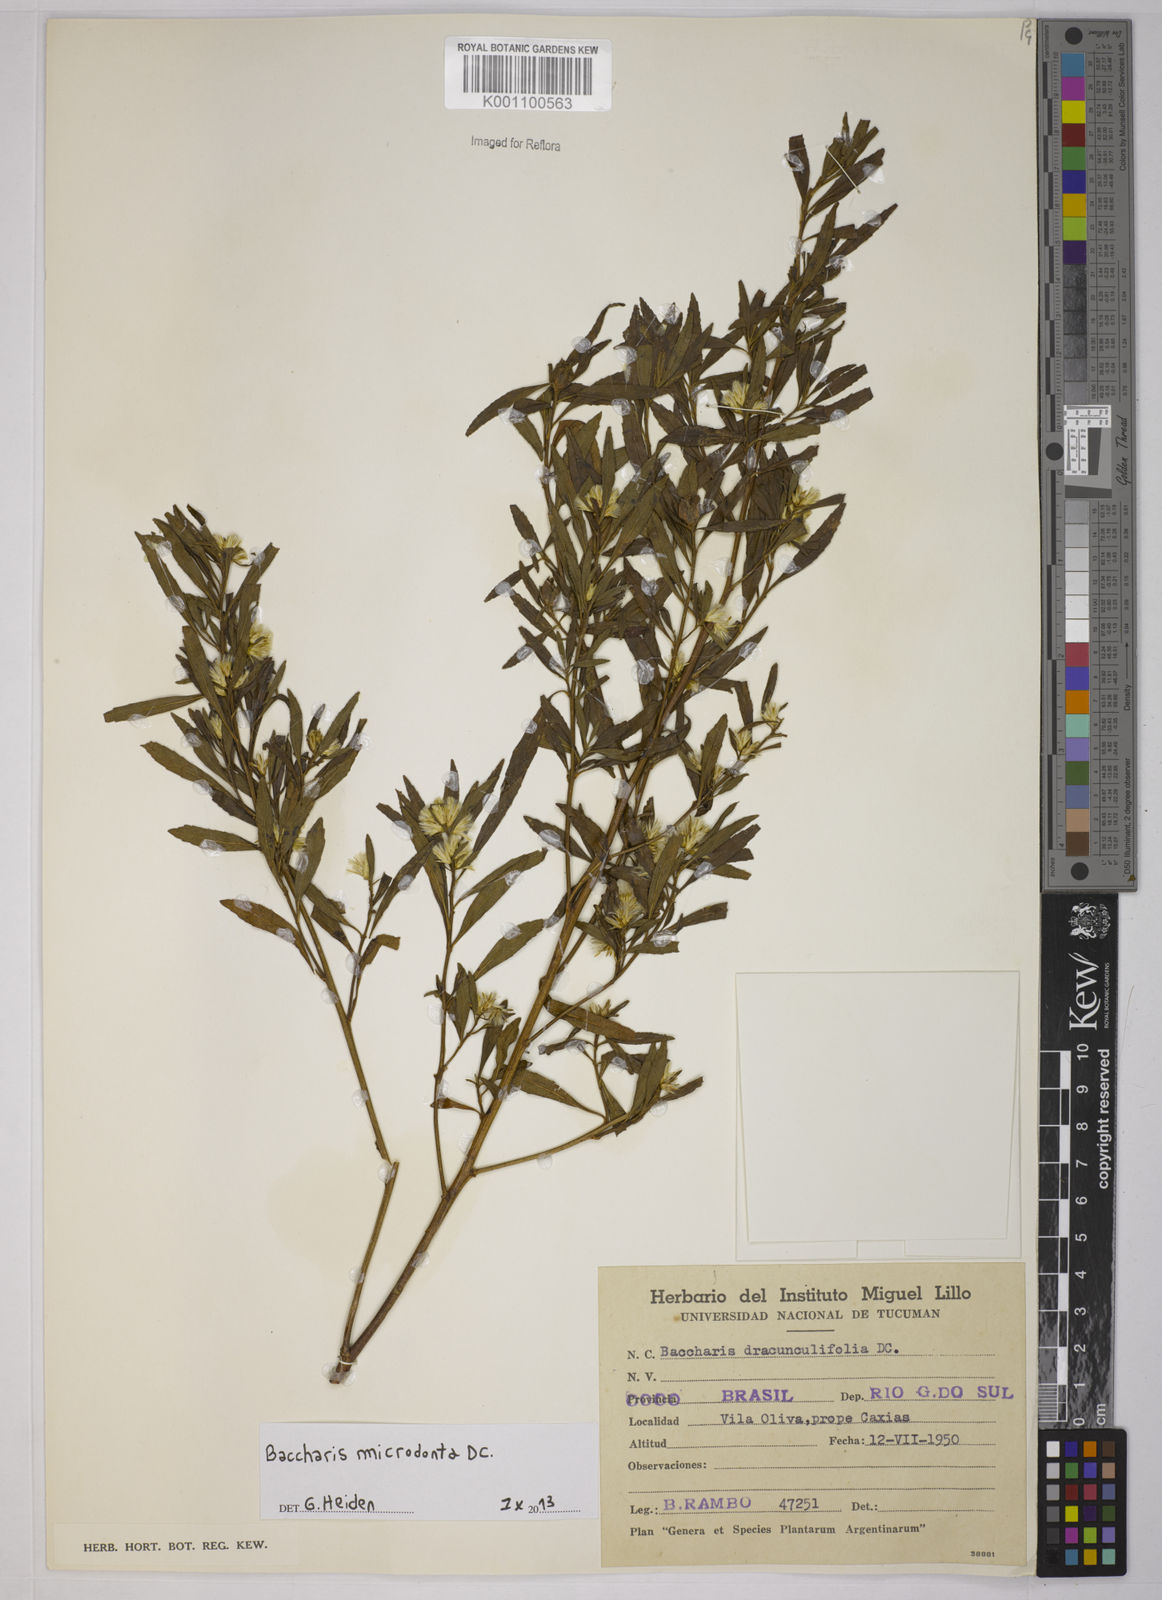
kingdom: Plantae
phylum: Tracheophyta
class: Magnoliopsida
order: Asterales
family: Asteraceae
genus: Baccharis
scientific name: Baccharis microdonta
